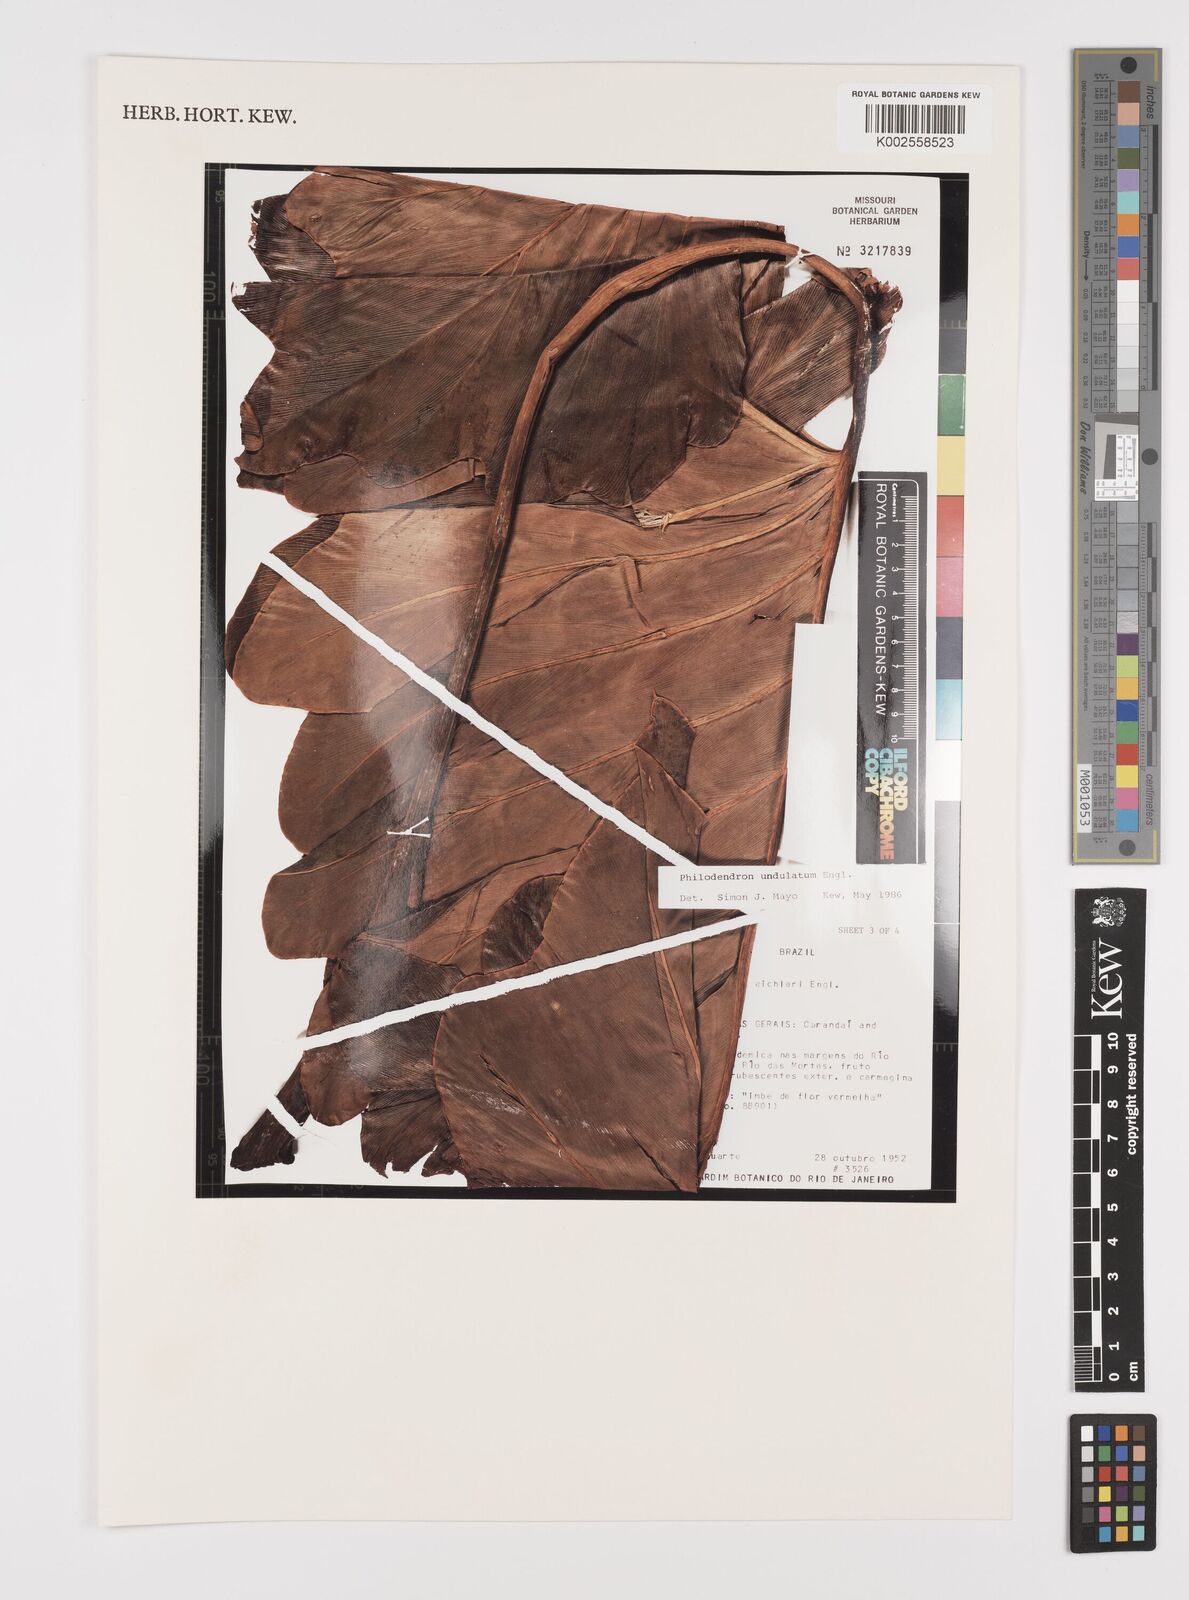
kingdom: Plantae
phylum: Tracheophyta
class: Liliopsida
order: Alismatales
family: Araceae
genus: Thaumatophyllum
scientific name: Thaumatophyllum undulatum
